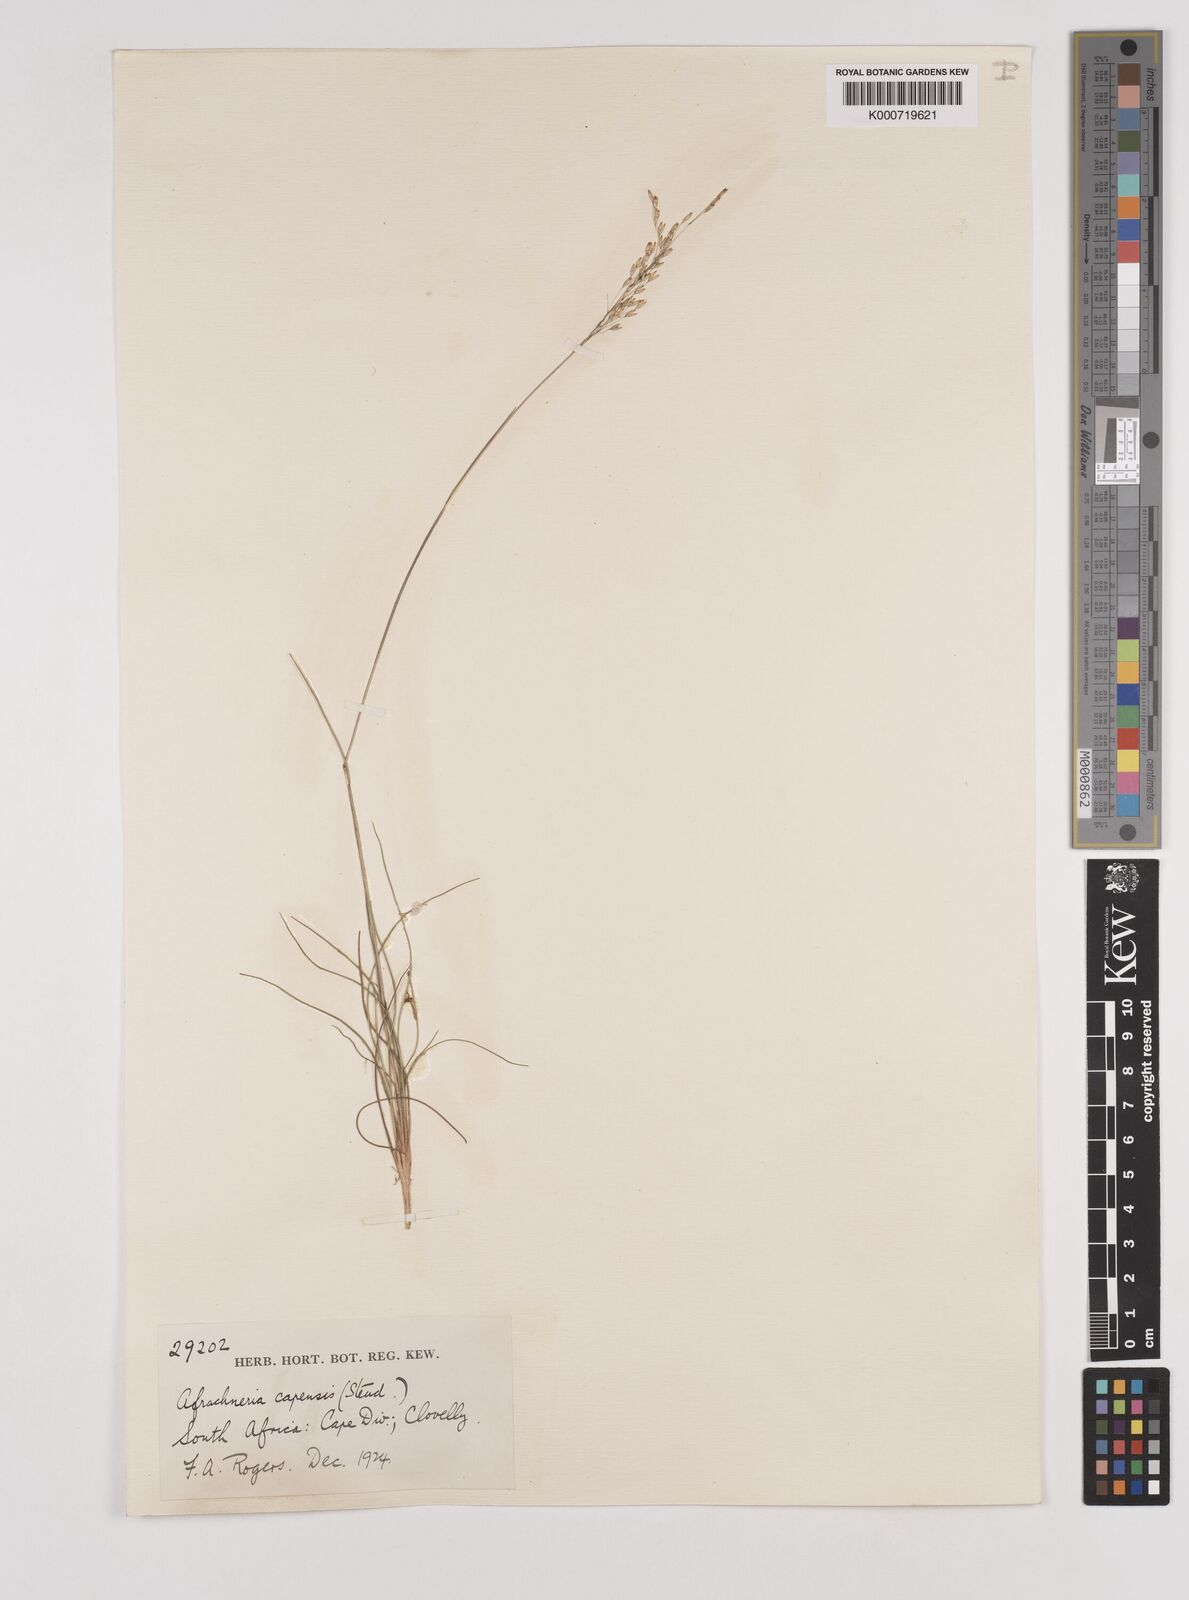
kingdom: Plantae
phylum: Tracheophyta
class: Liliopsida
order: Poales
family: Poaceae
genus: Pentameris
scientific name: Pentameris malouinensis
